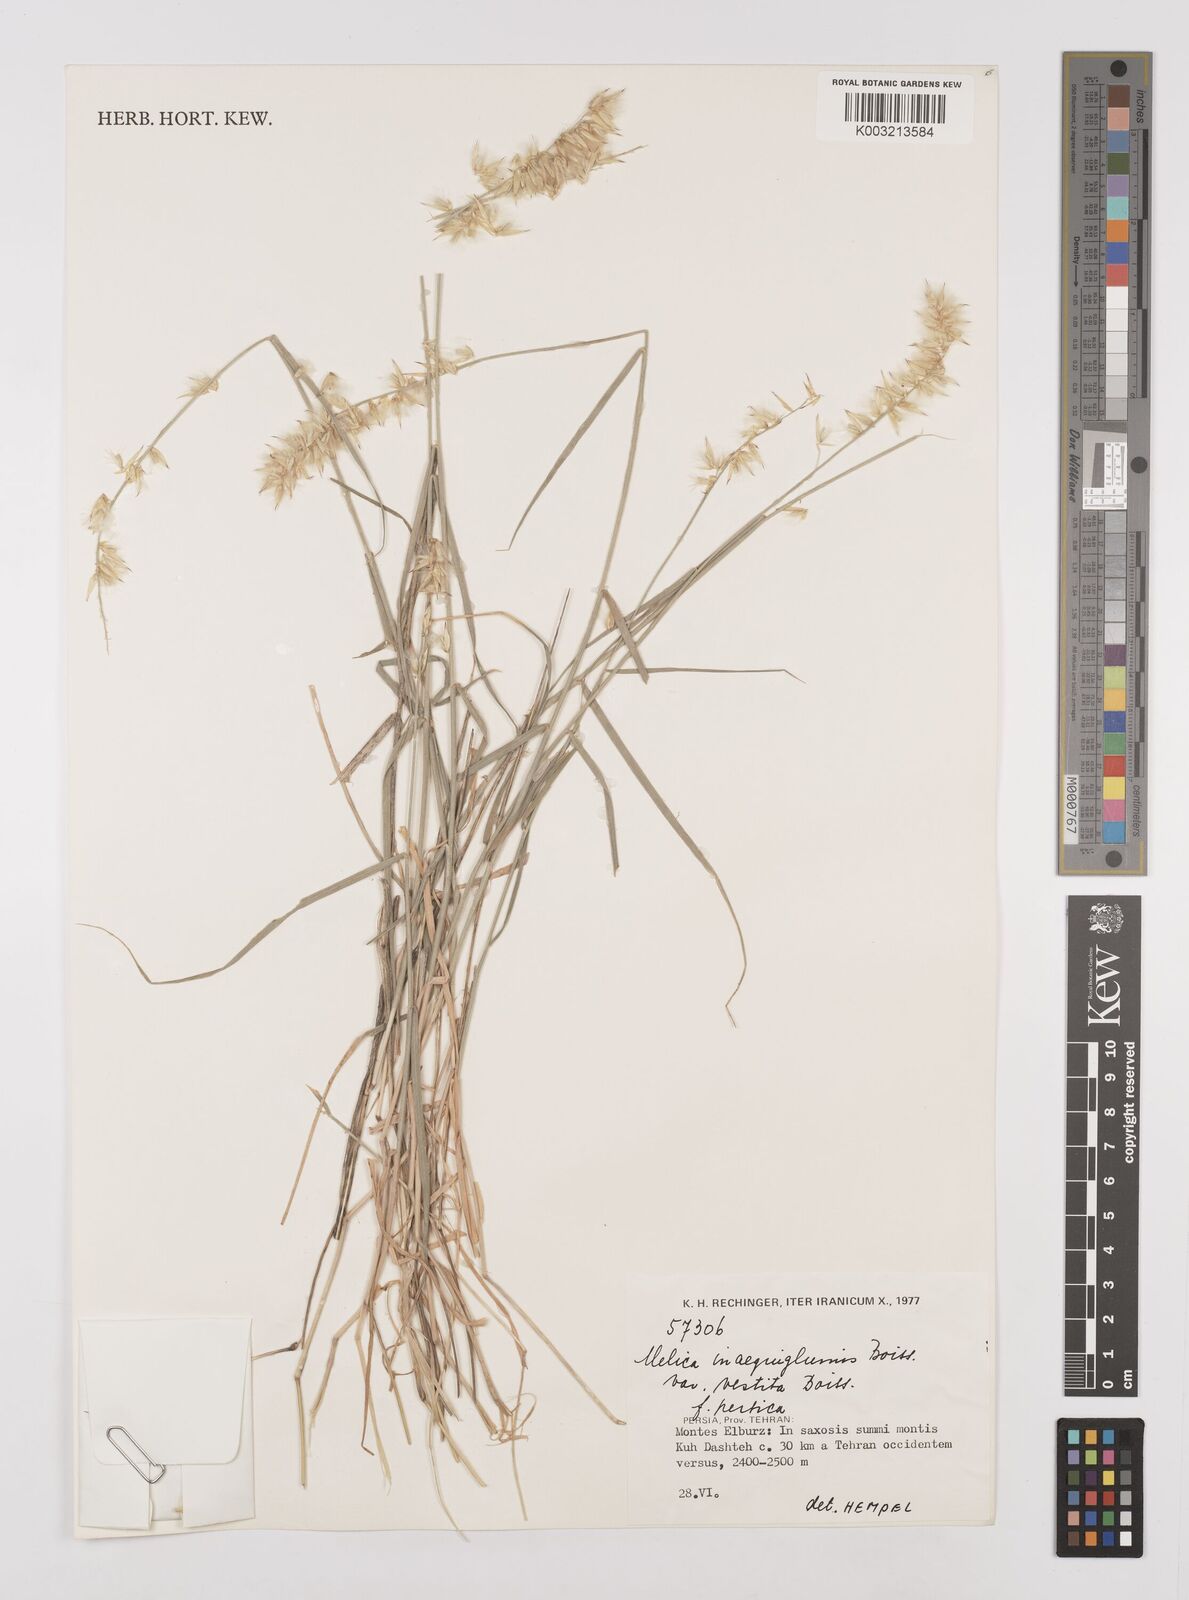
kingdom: Plantae
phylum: Tracheophyta
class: Liliopsida
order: Poales
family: Poaceae
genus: Melica
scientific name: Melica eligulata
